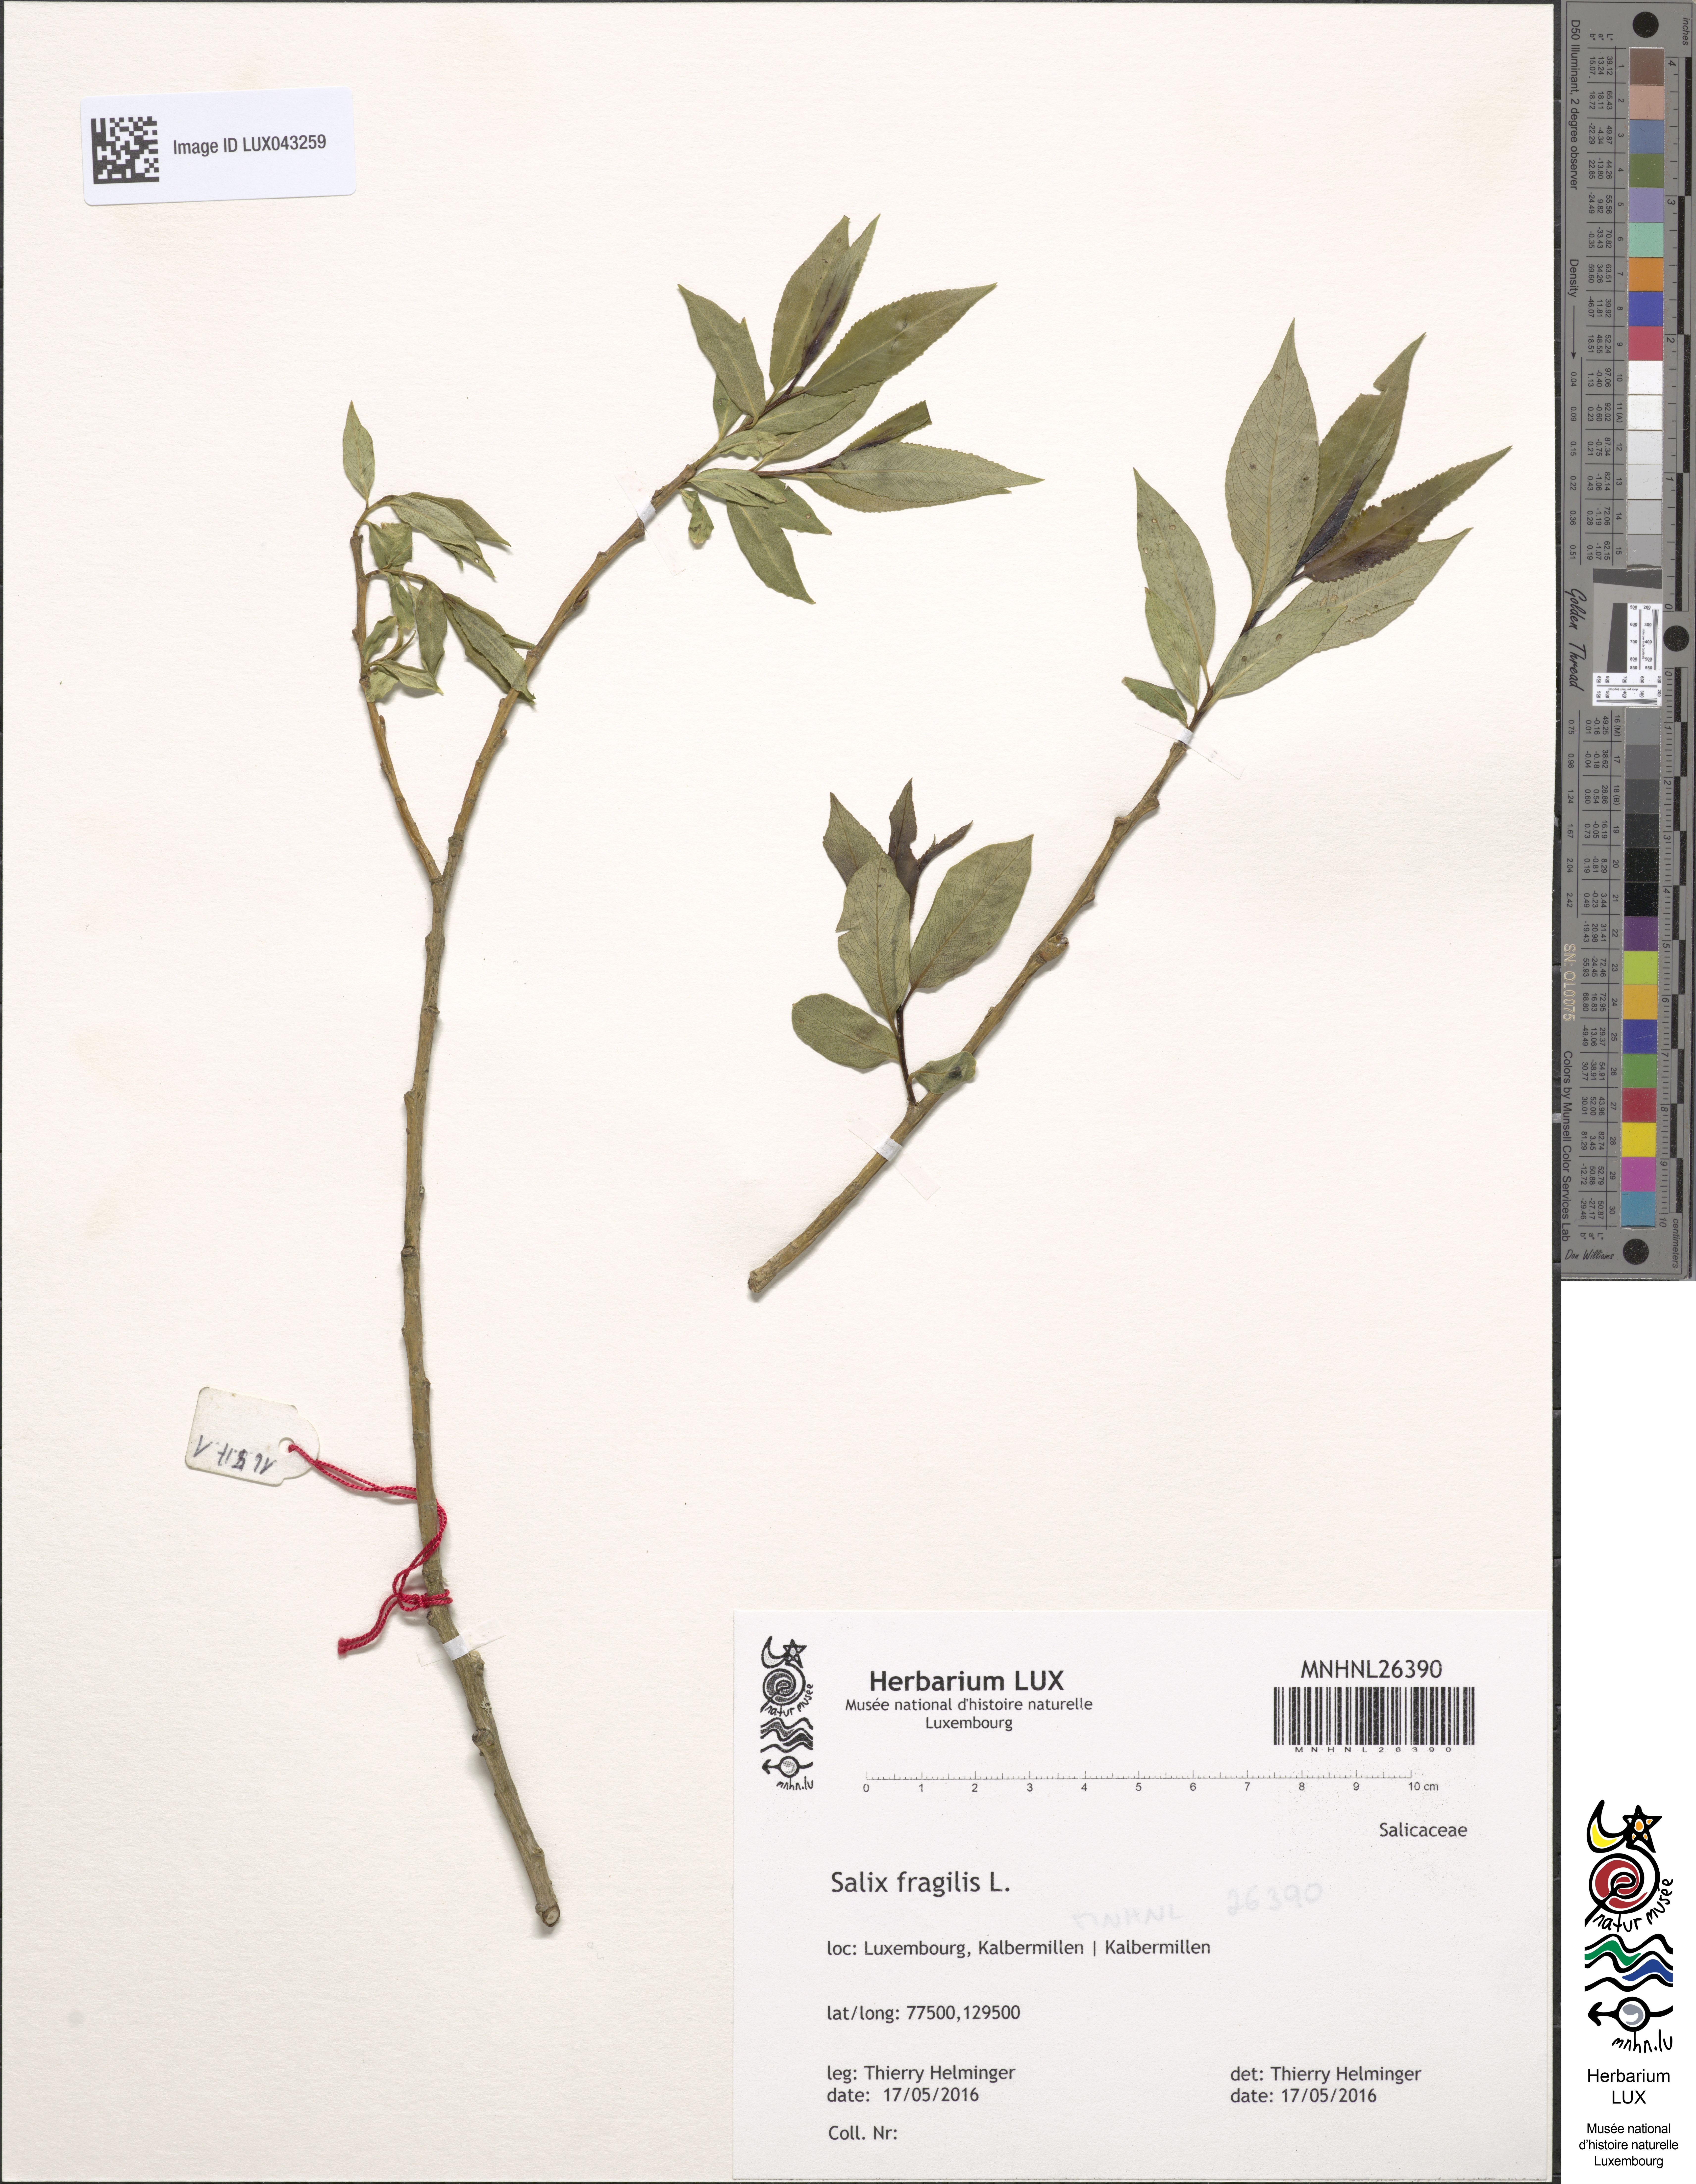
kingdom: Plantae
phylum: Tracheophyta
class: Magnoliopsida
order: Malpighiales
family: Salicaceae
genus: Salix
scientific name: Salix fragilis
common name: Crack willow
